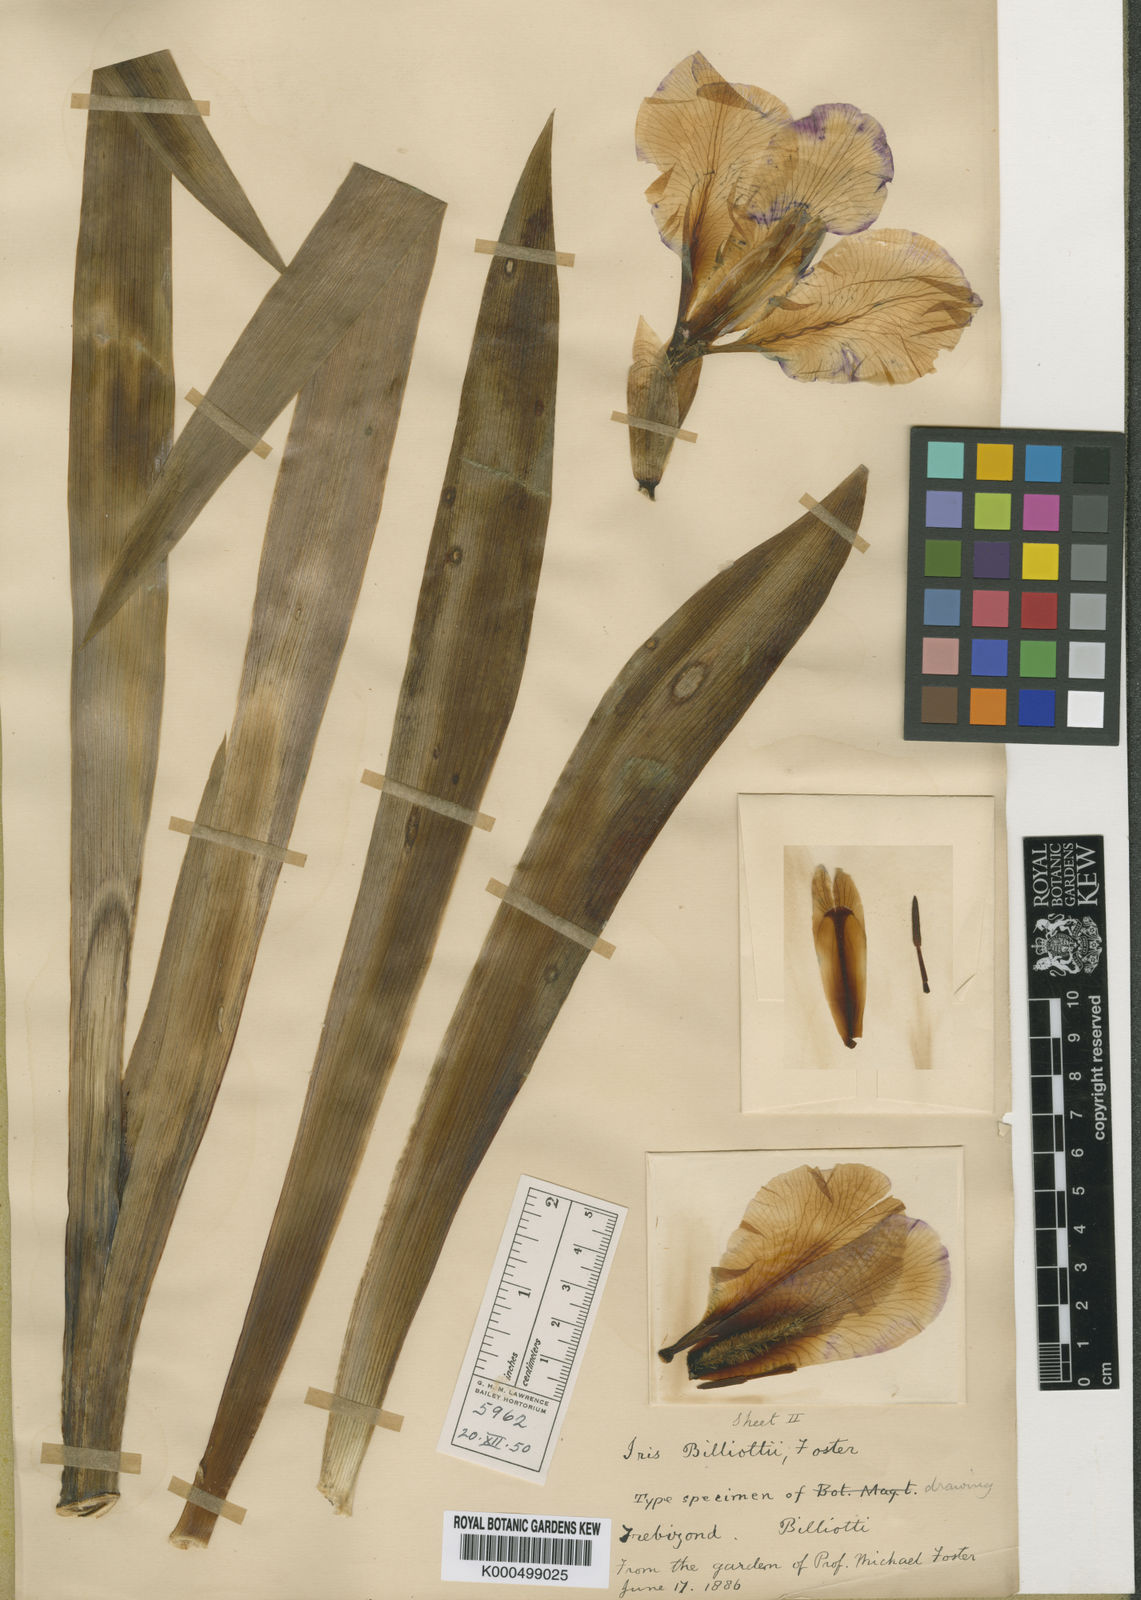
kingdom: Plantae
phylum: Tracheophyta
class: Liliopsida
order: Asparagales
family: Iridaceae
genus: Iris
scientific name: Iris germanica
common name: German iris
